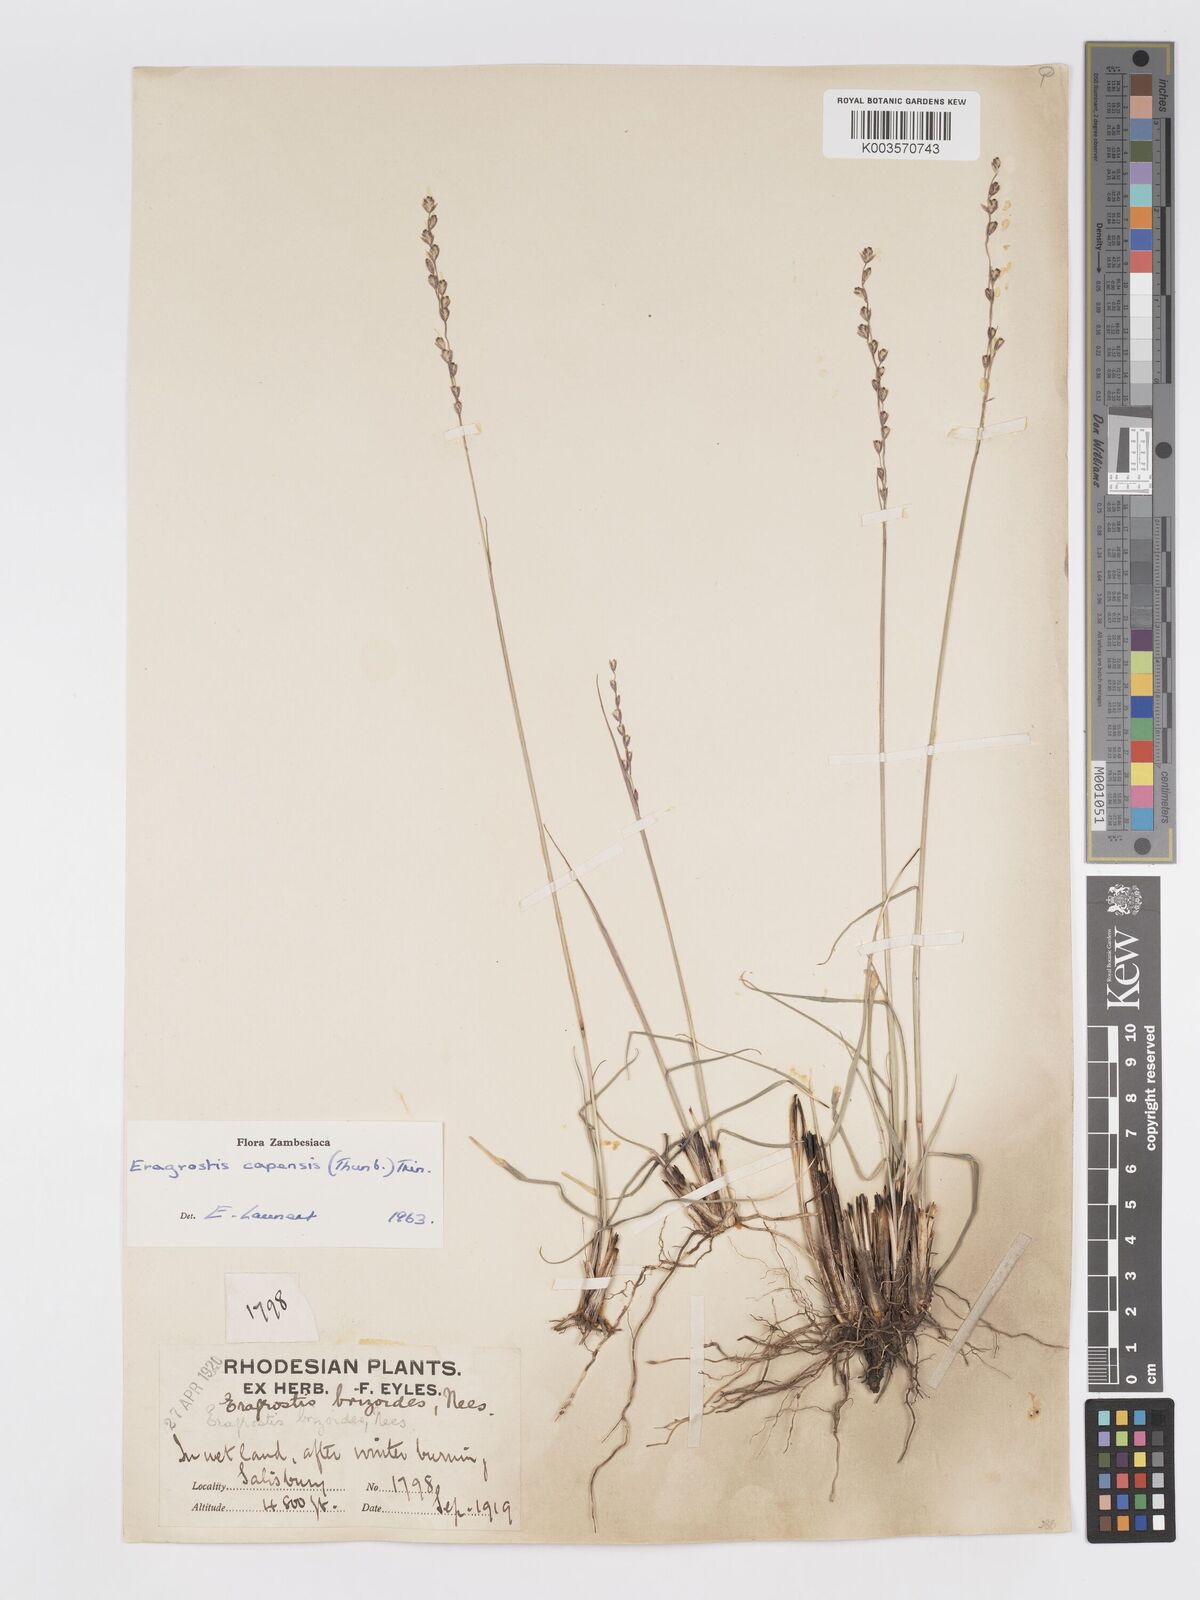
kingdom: Plantae
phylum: Tracheophyta
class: Liliopsida
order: Poales
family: Poaceae
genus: Eragrostis
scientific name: Eragrostis capensis
